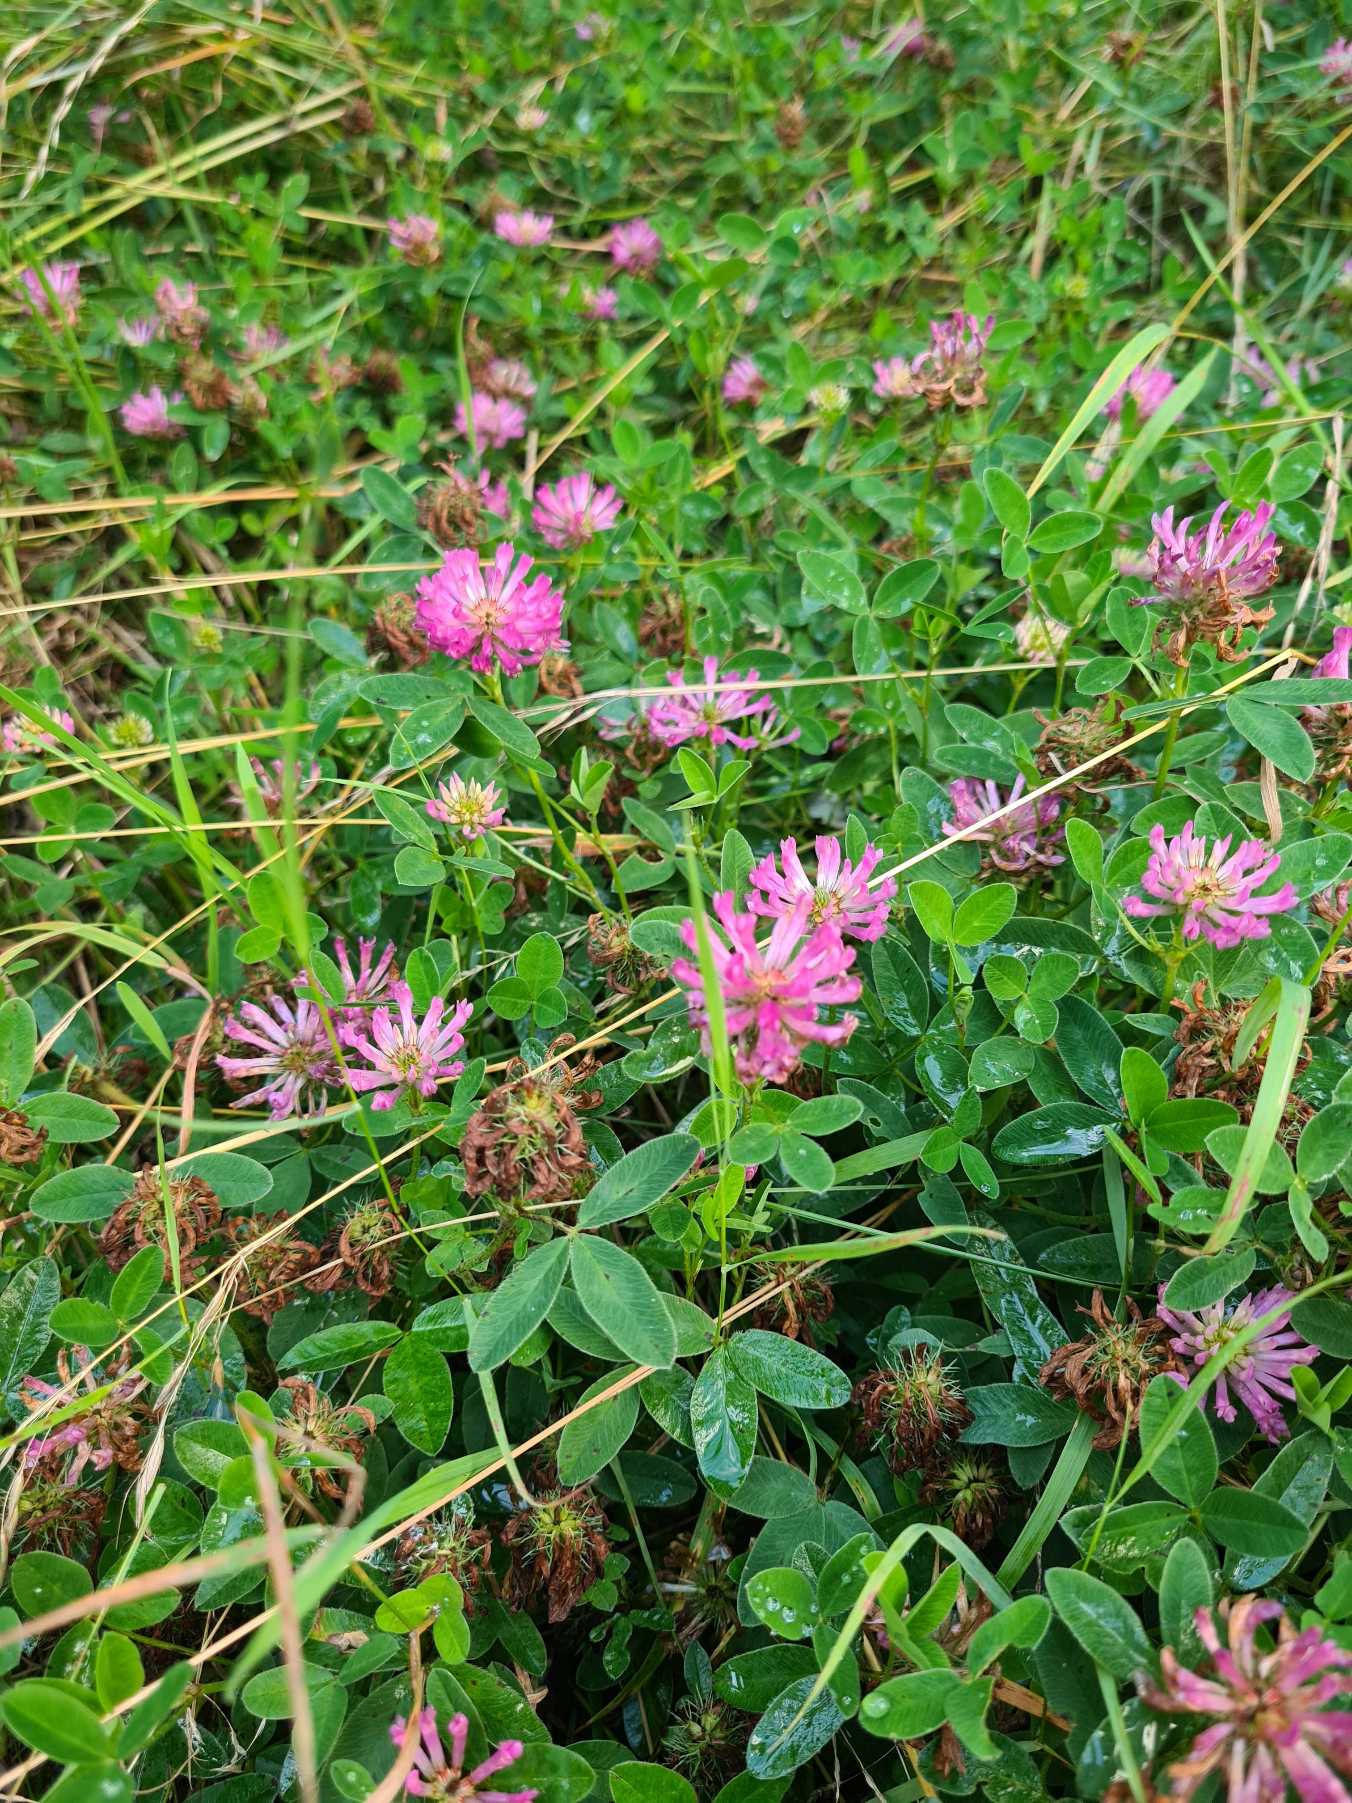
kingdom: Plantae
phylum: Tracheophyta
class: Magnoliopsida
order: Fabales
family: Fabaceae
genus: Trifolium
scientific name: Trifolium medium
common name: Bugtet kløver
